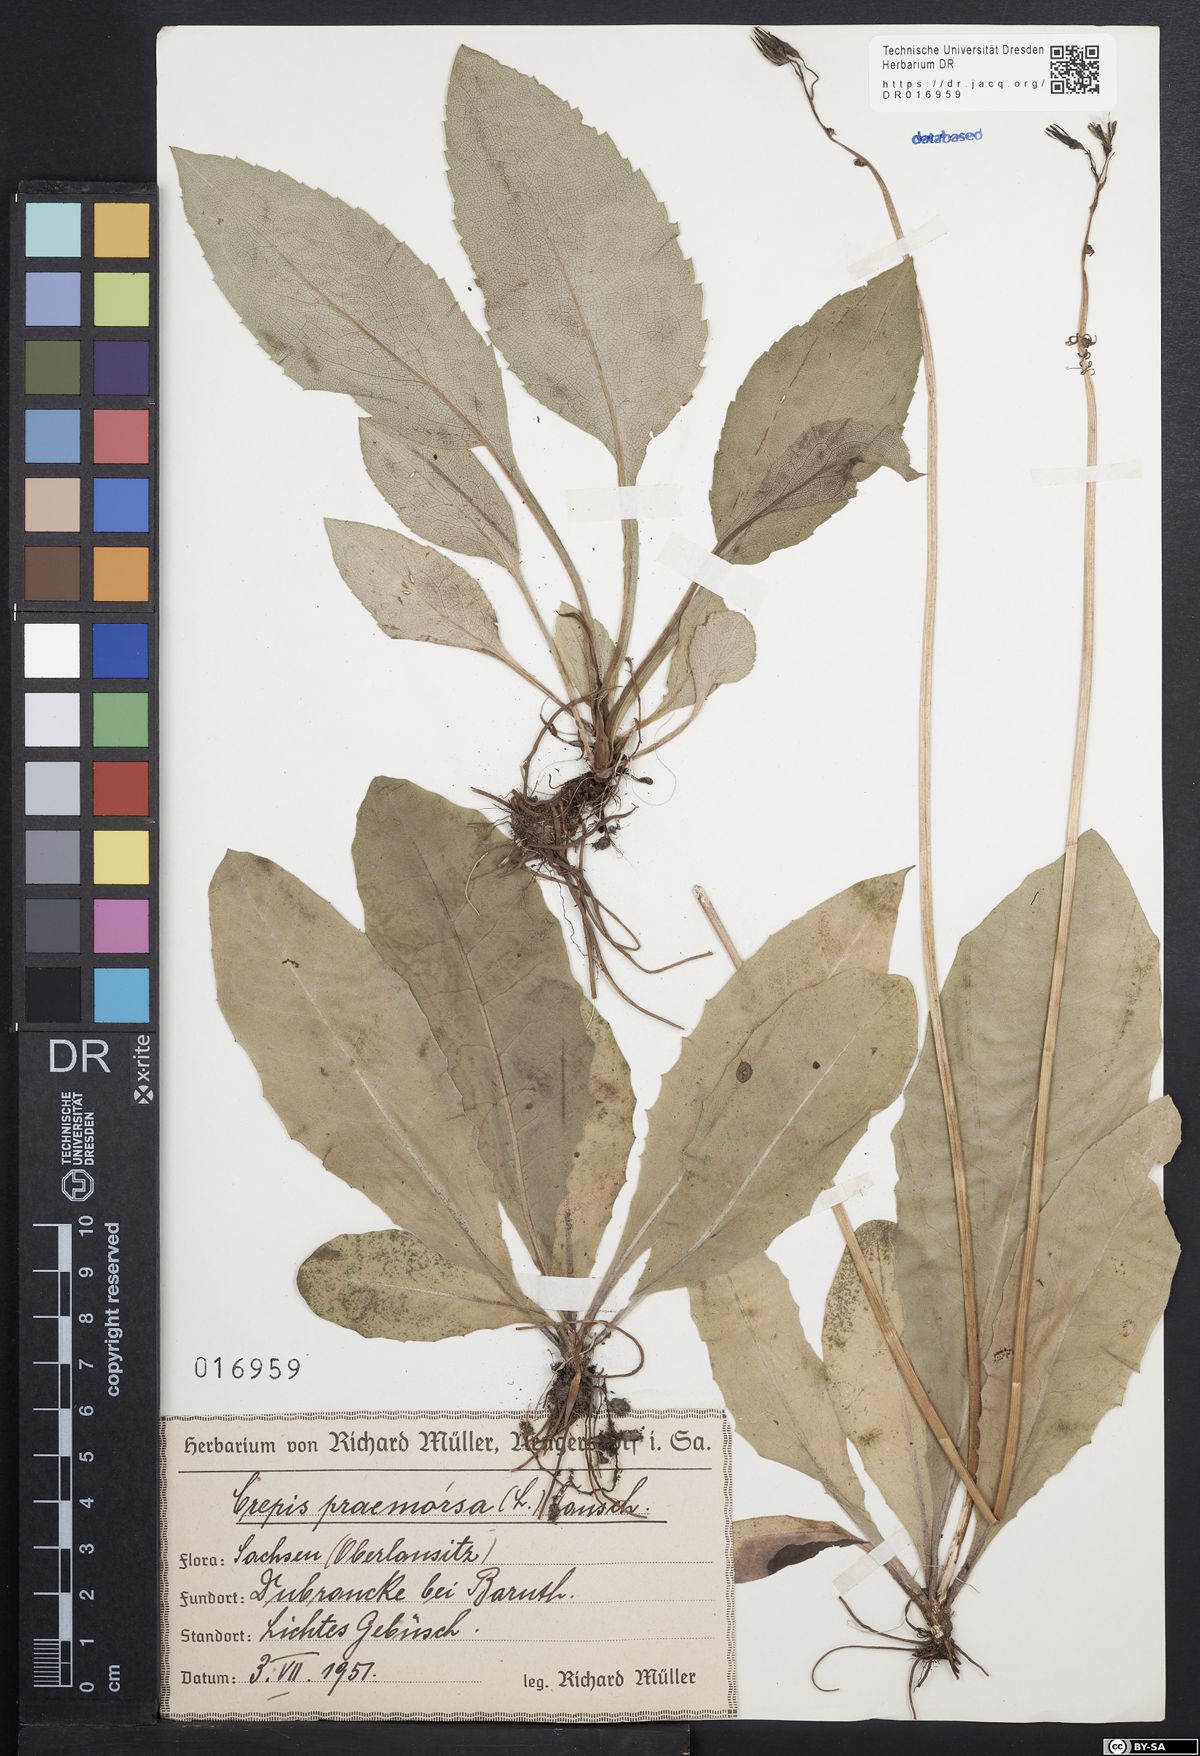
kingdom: Plantae
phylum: Tracheophyta
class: Magnoliopsida
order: Asterales
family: Asteraceae
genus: Crepis
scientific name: Crepis praemorsa
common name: Leafless hawk's-beard
